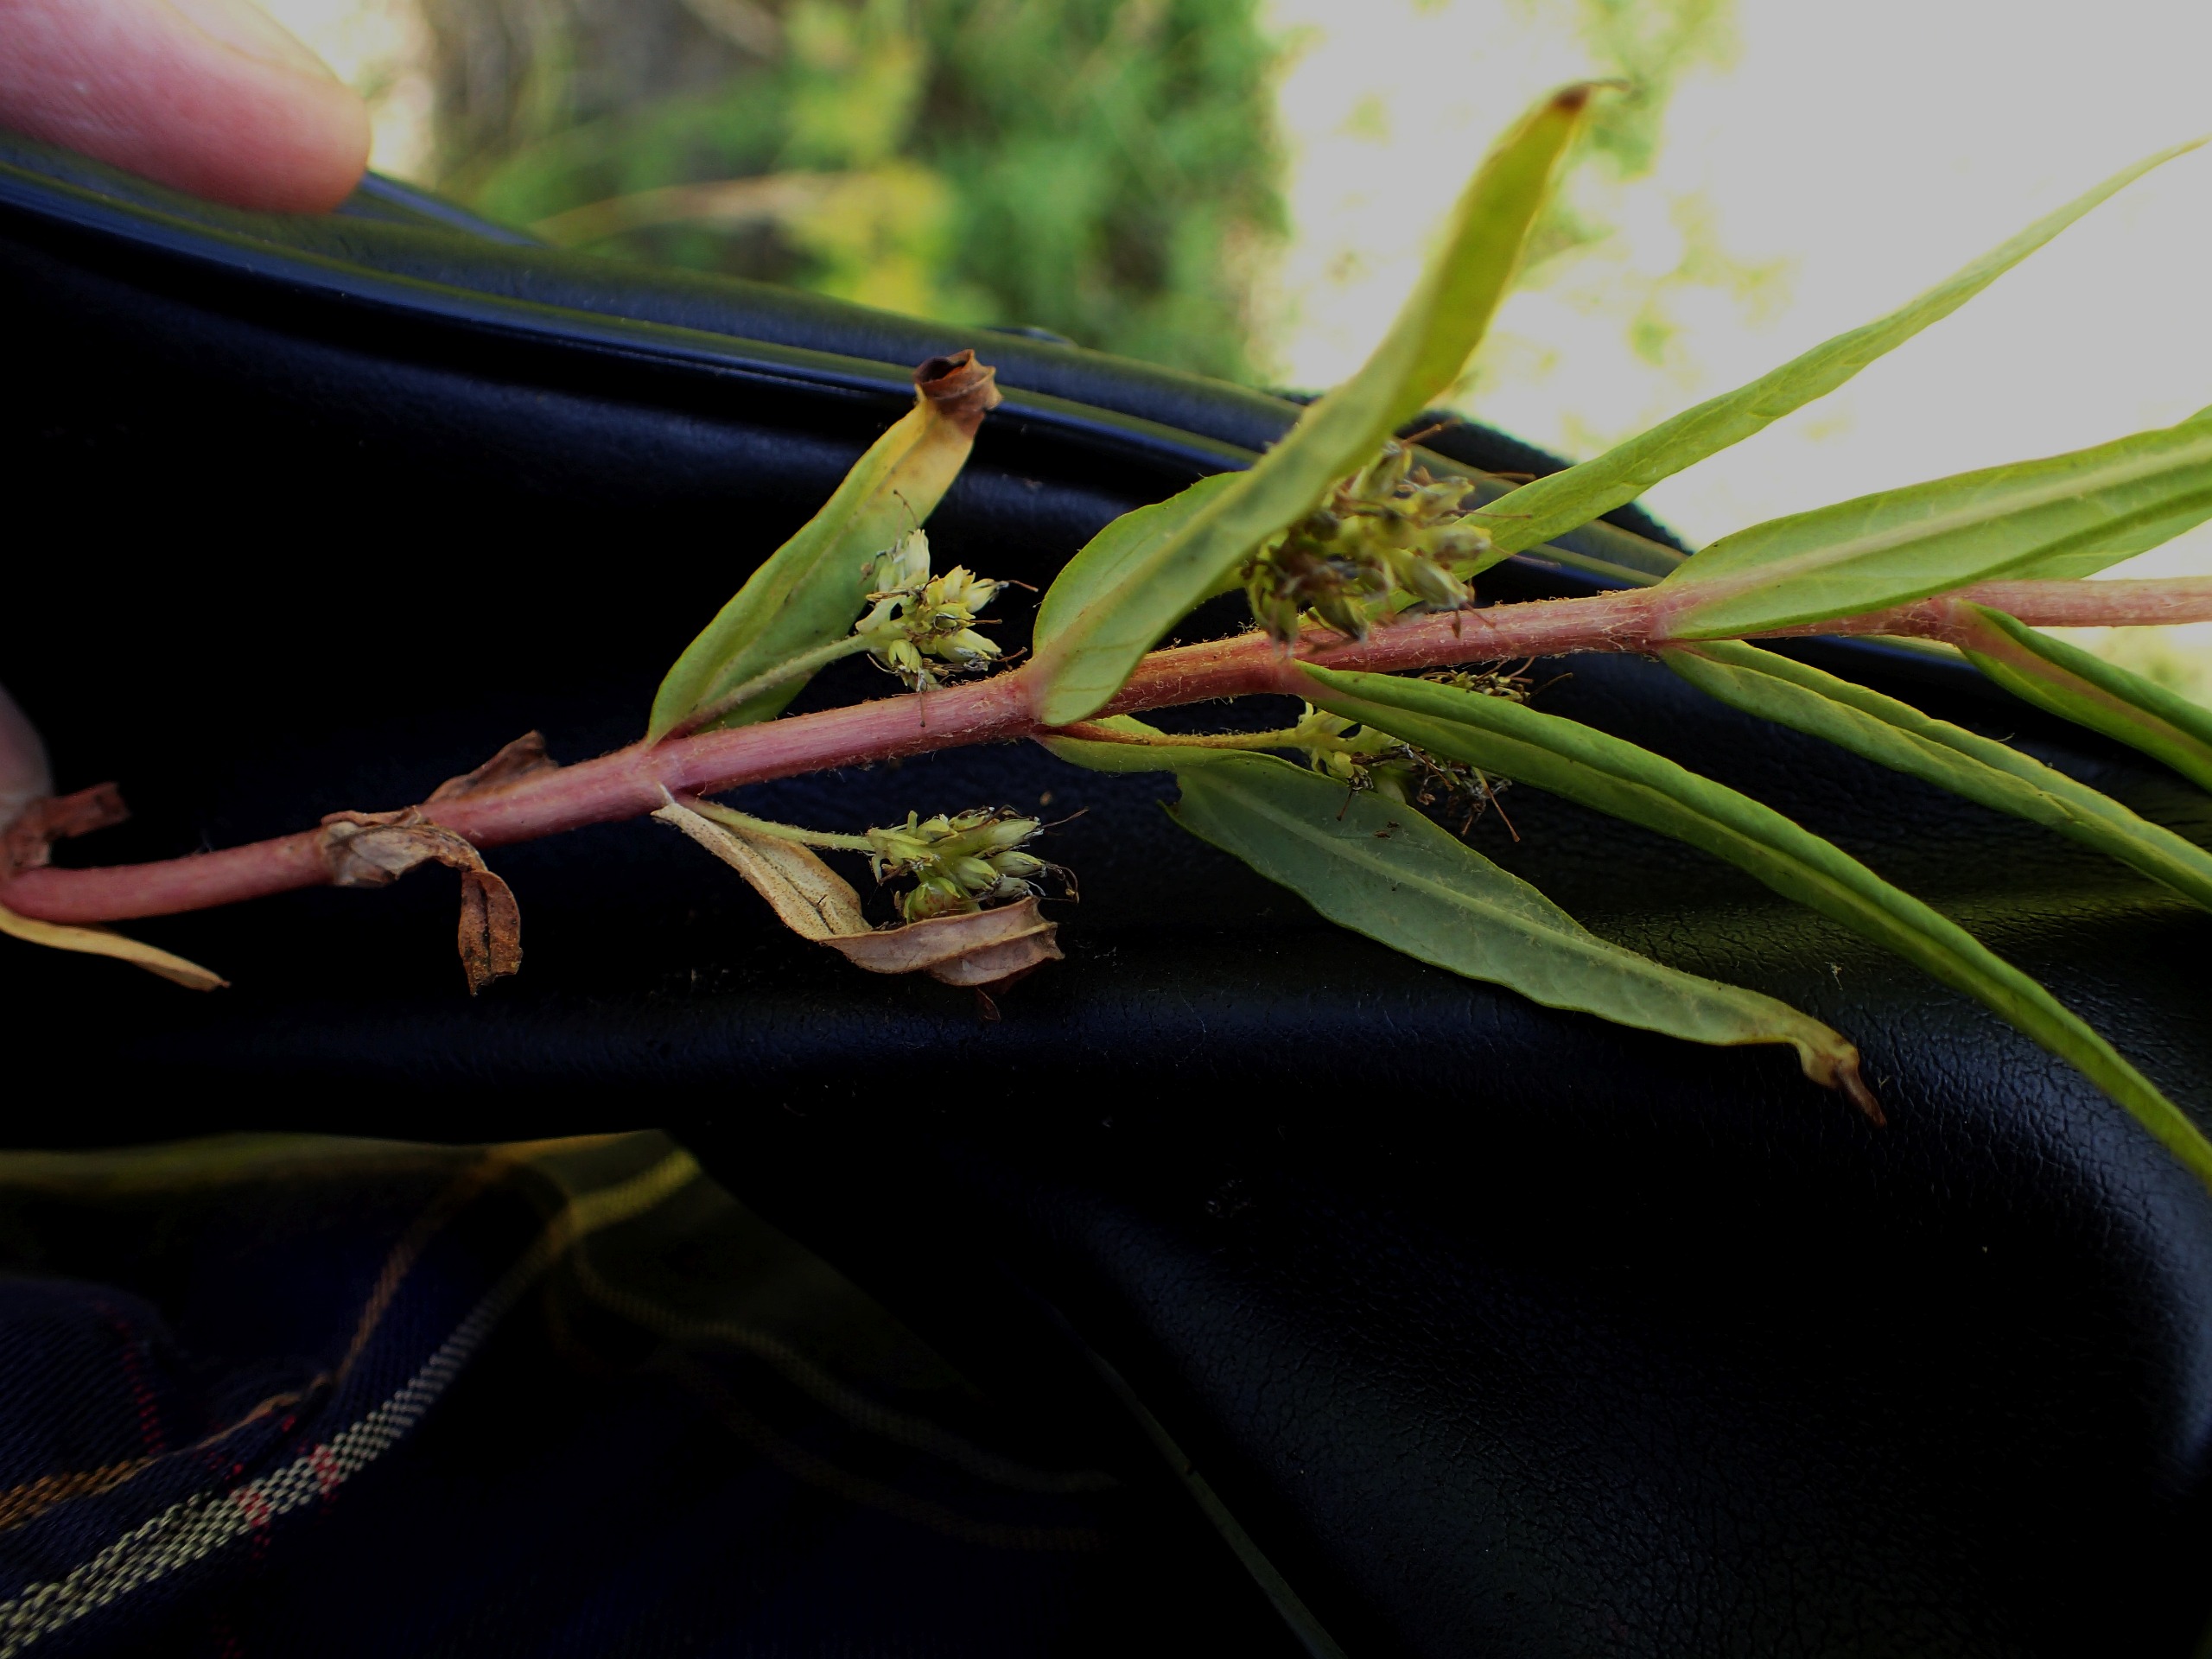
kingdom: Plantae
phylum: Tracheophyta
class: Magnoliopsida
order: Ericales
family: Primulaceae
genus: Lysimachia
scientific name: Lysimachia thyrsiflora
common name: Dusk-fredløs
